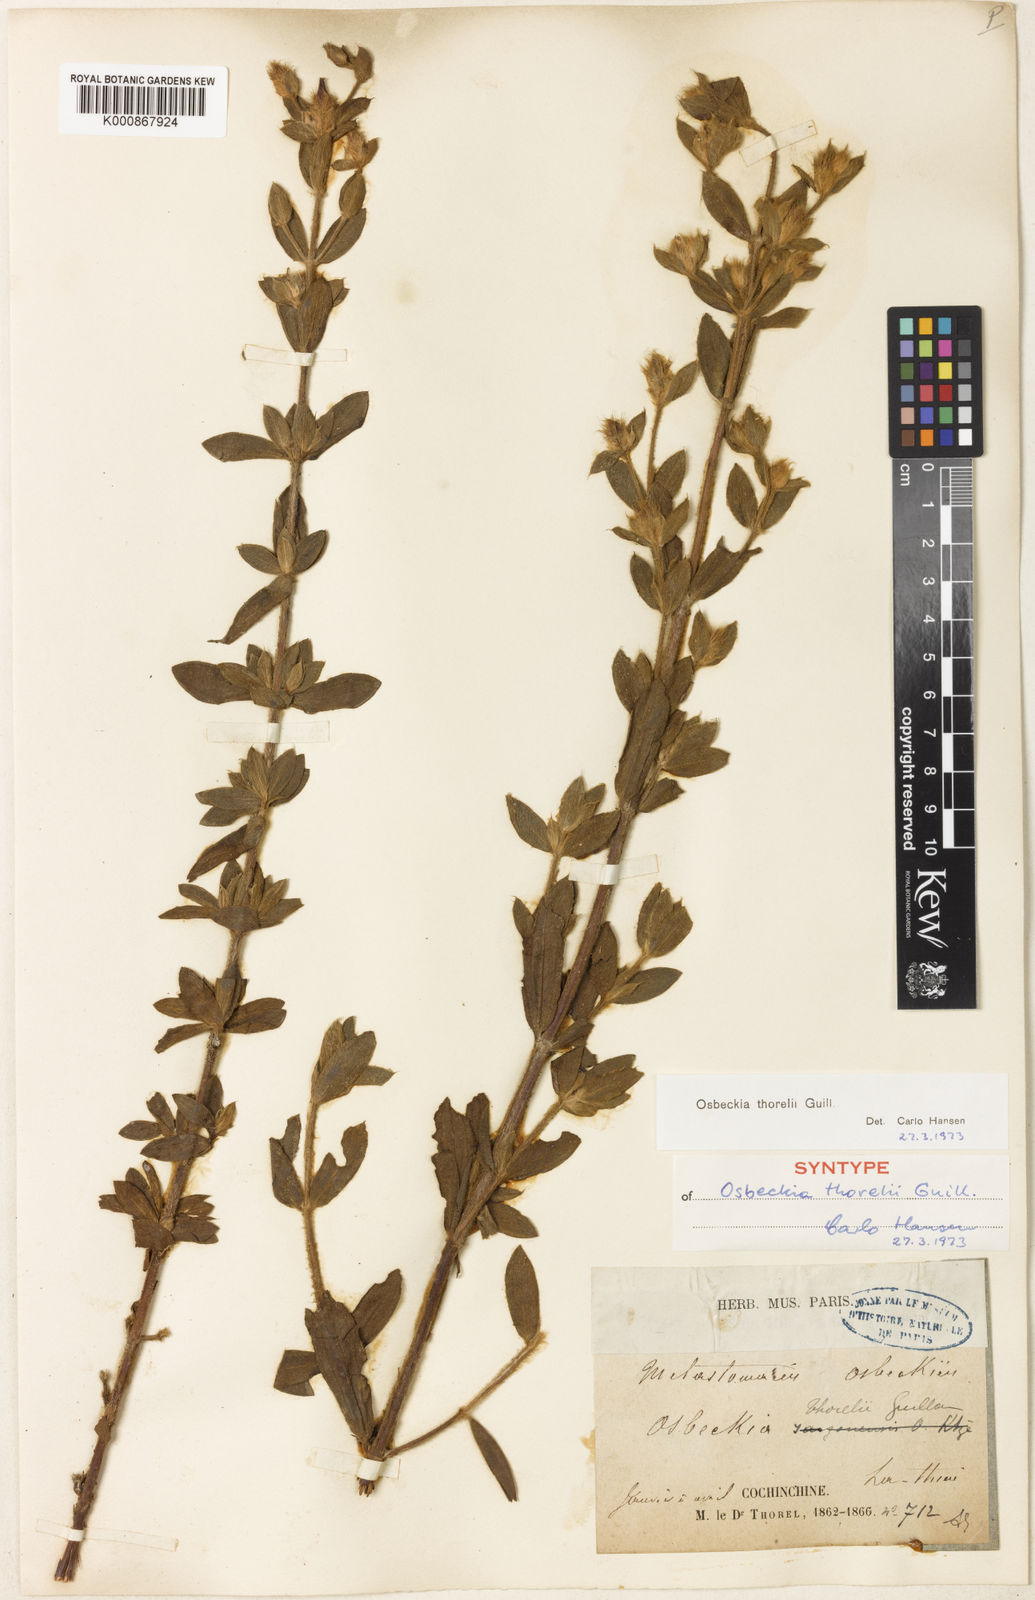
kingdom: Plantae
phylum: Tracheophyta
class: Magnoliopsida
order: Myrtales
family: Melastomataceae
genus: Osbeckia
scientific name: Osbeckia thorelii
